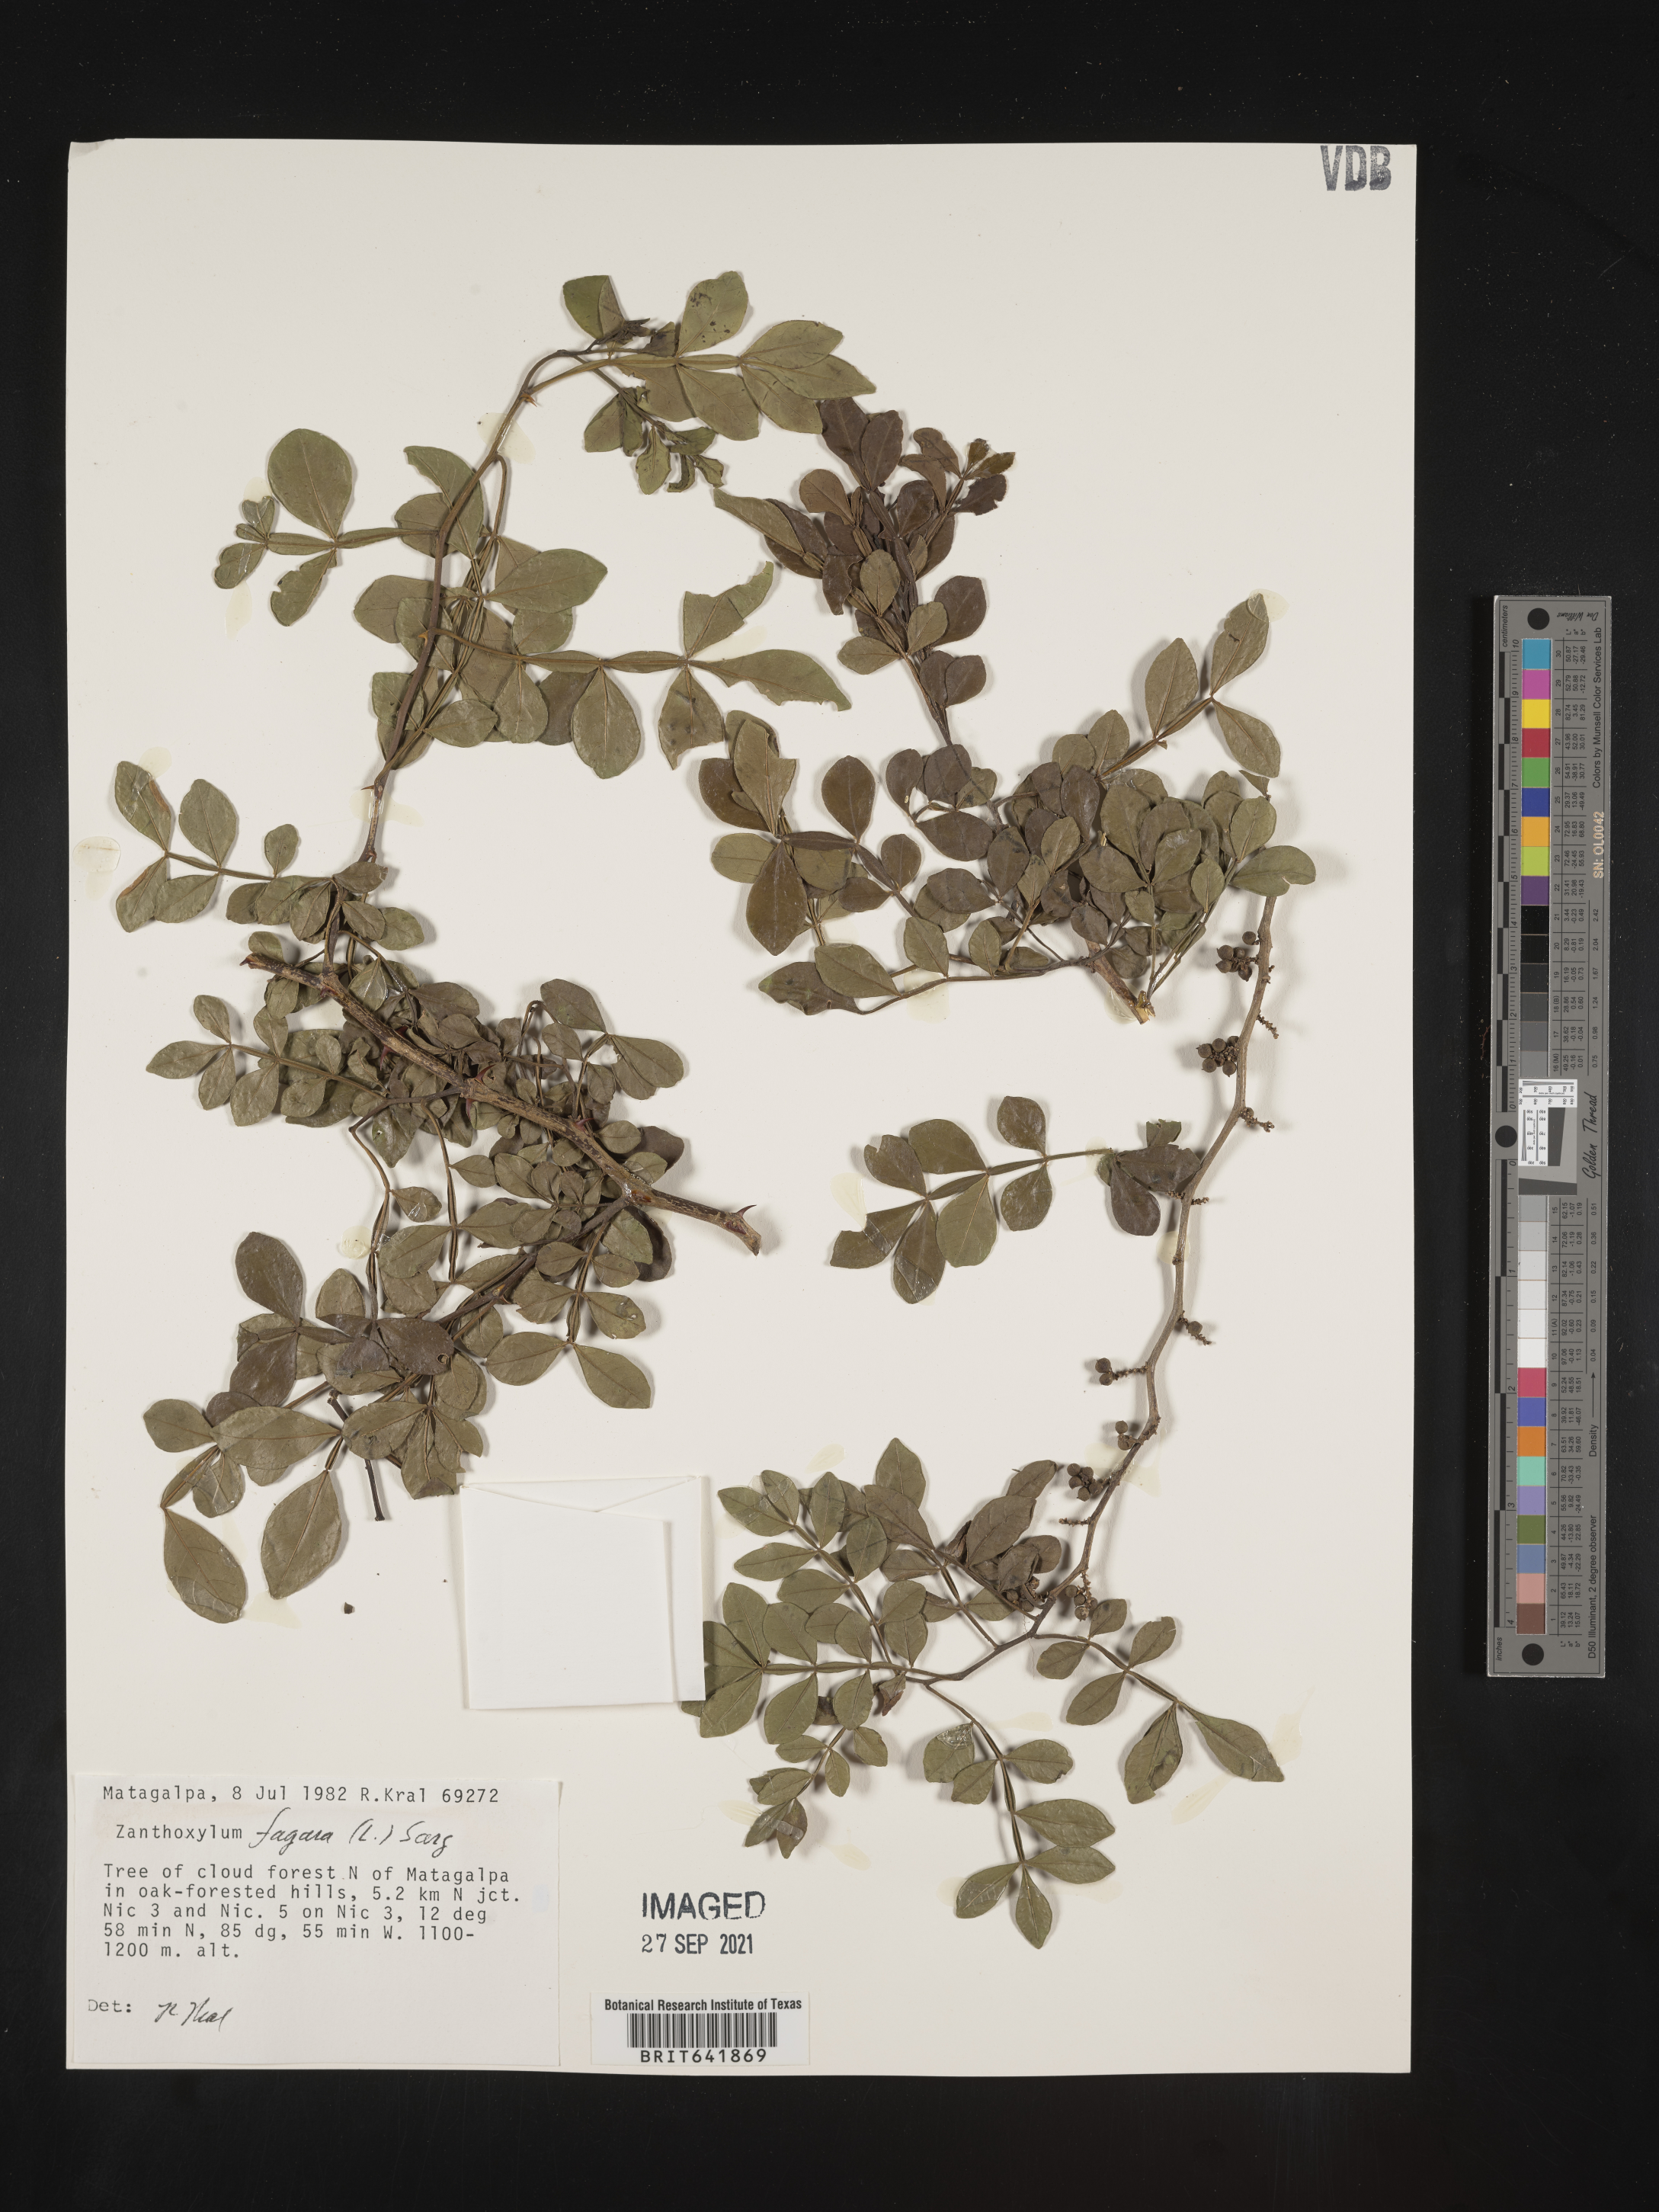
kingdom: Plantae
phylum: Tracheophyta
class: Magnoliopsida
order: Sapindales
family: Rutaceae
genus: Zanthoxylum
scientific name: Zanthoxylum
